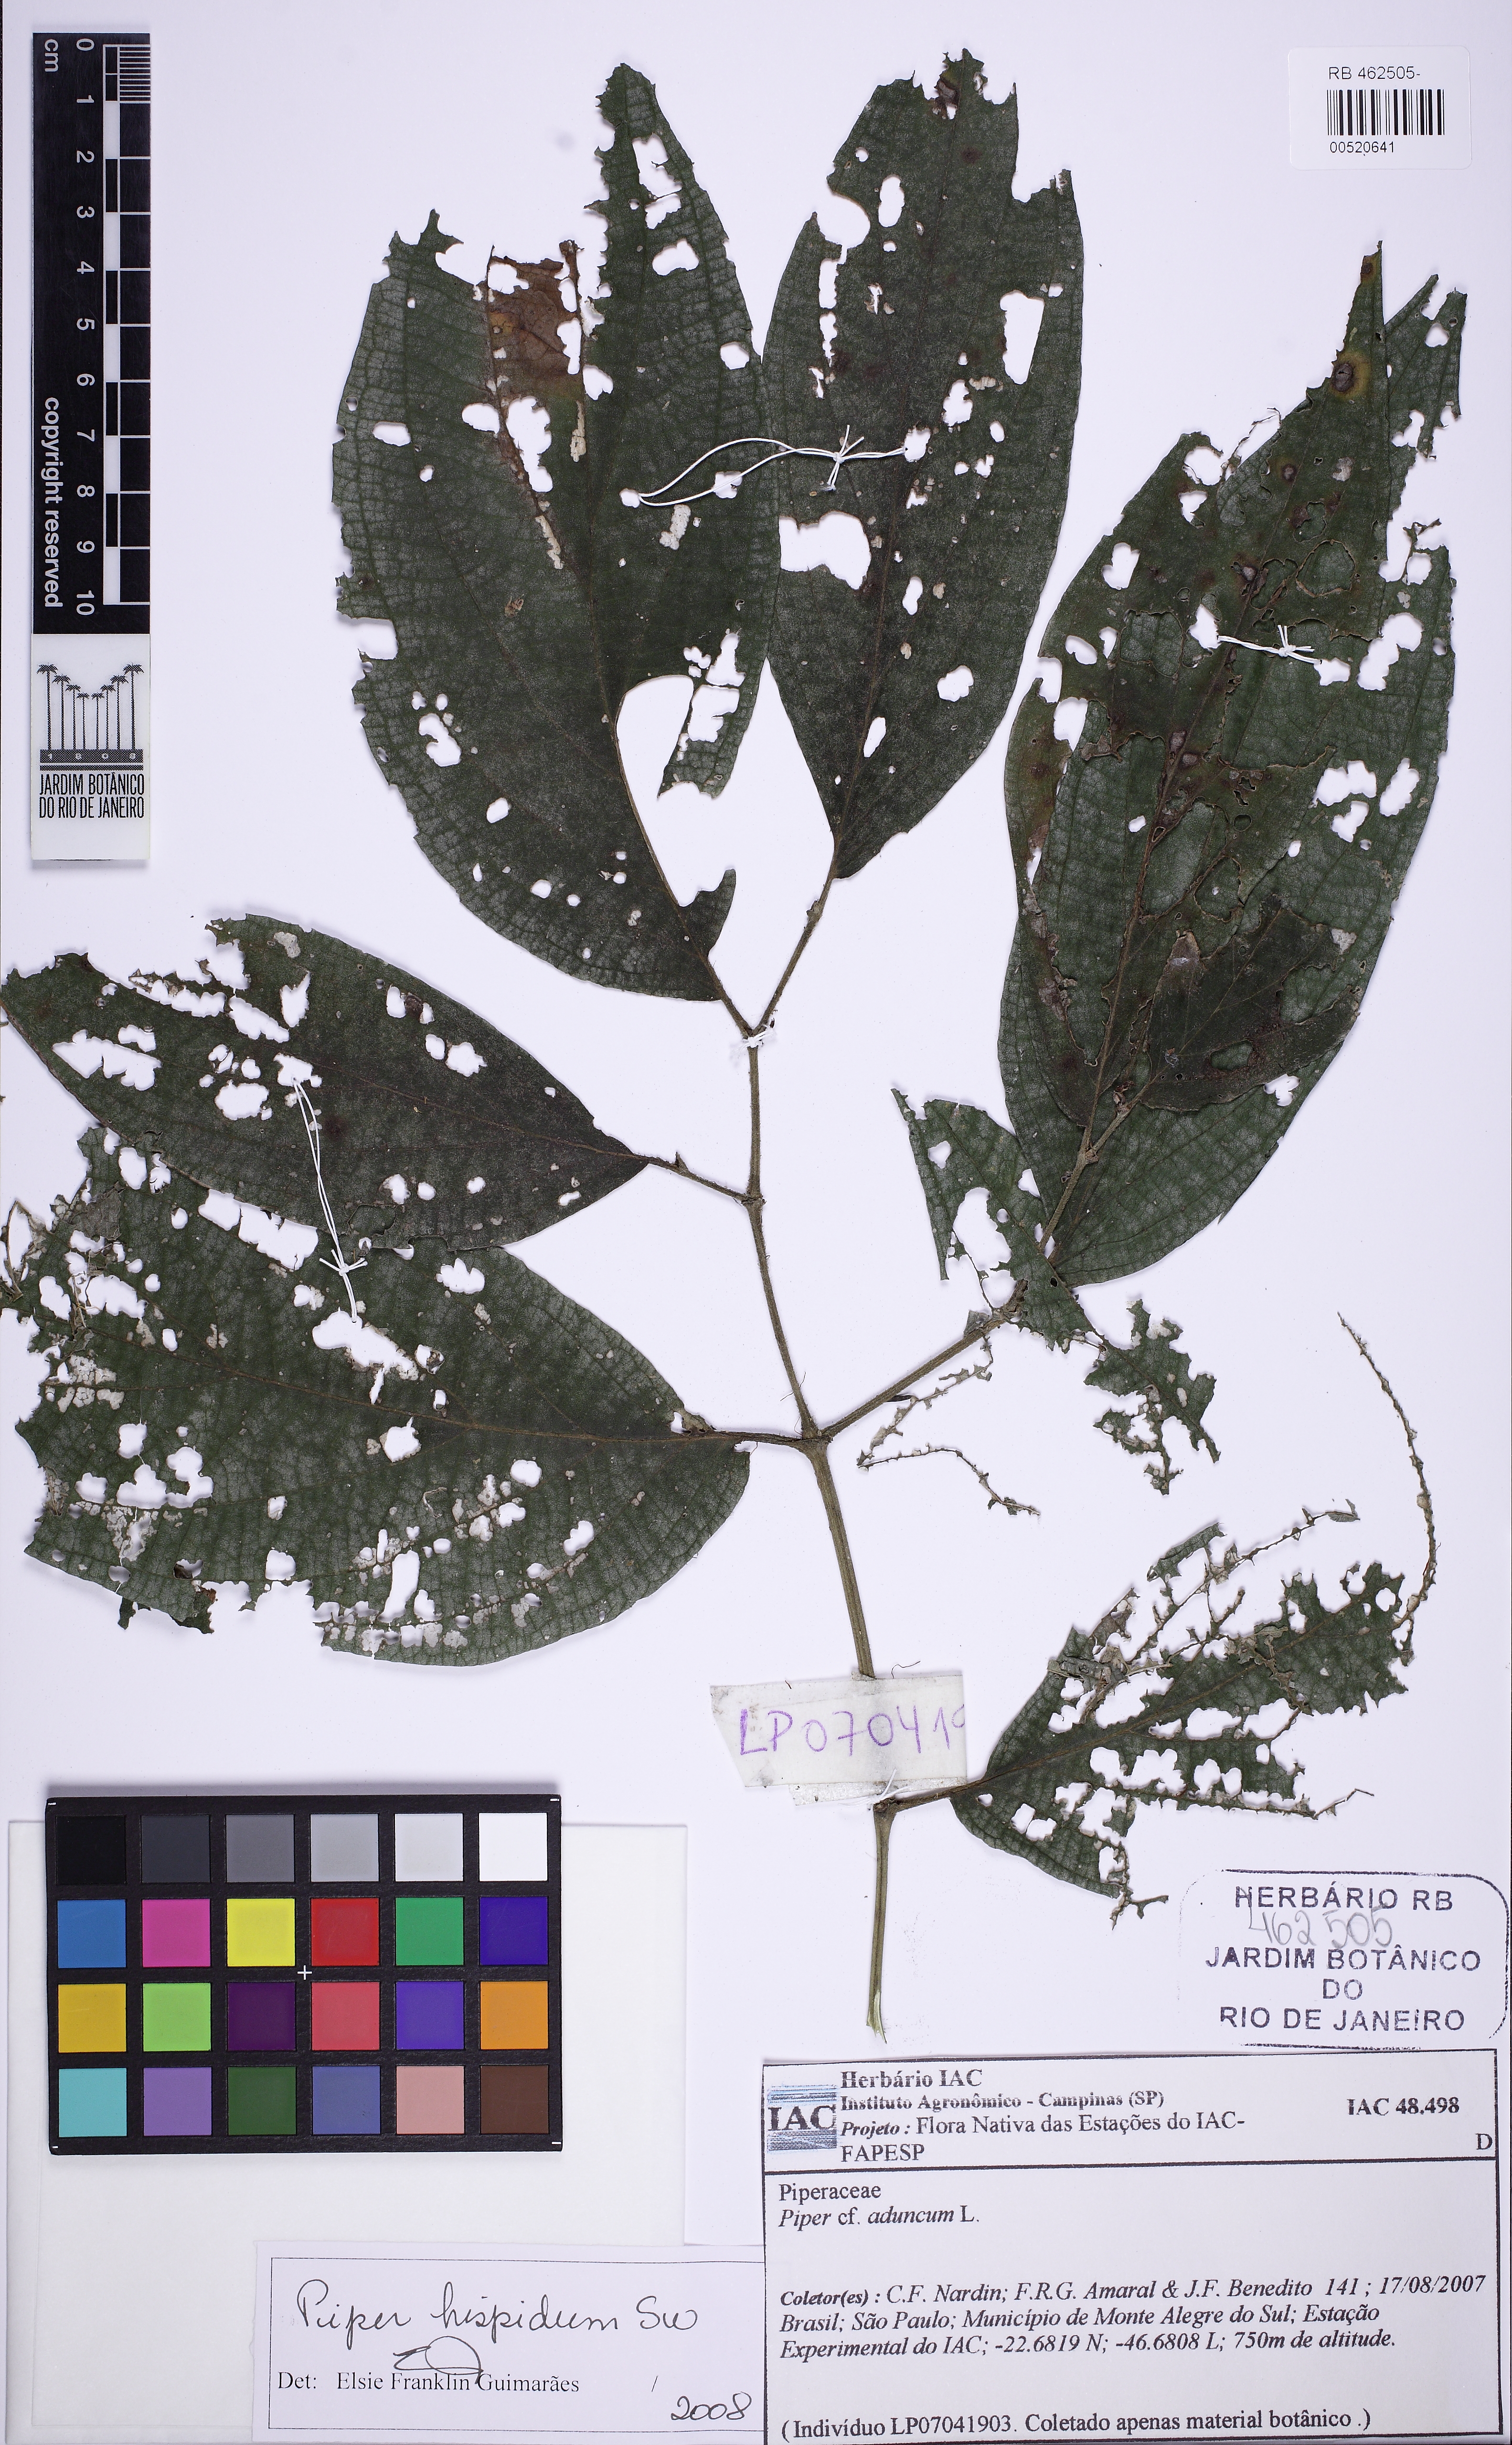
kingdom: Plantae
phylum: Tracheophyta
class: Magnoliopsida
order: Piperales
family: Piperaceae
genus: Piper
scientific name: Piper hispidum
